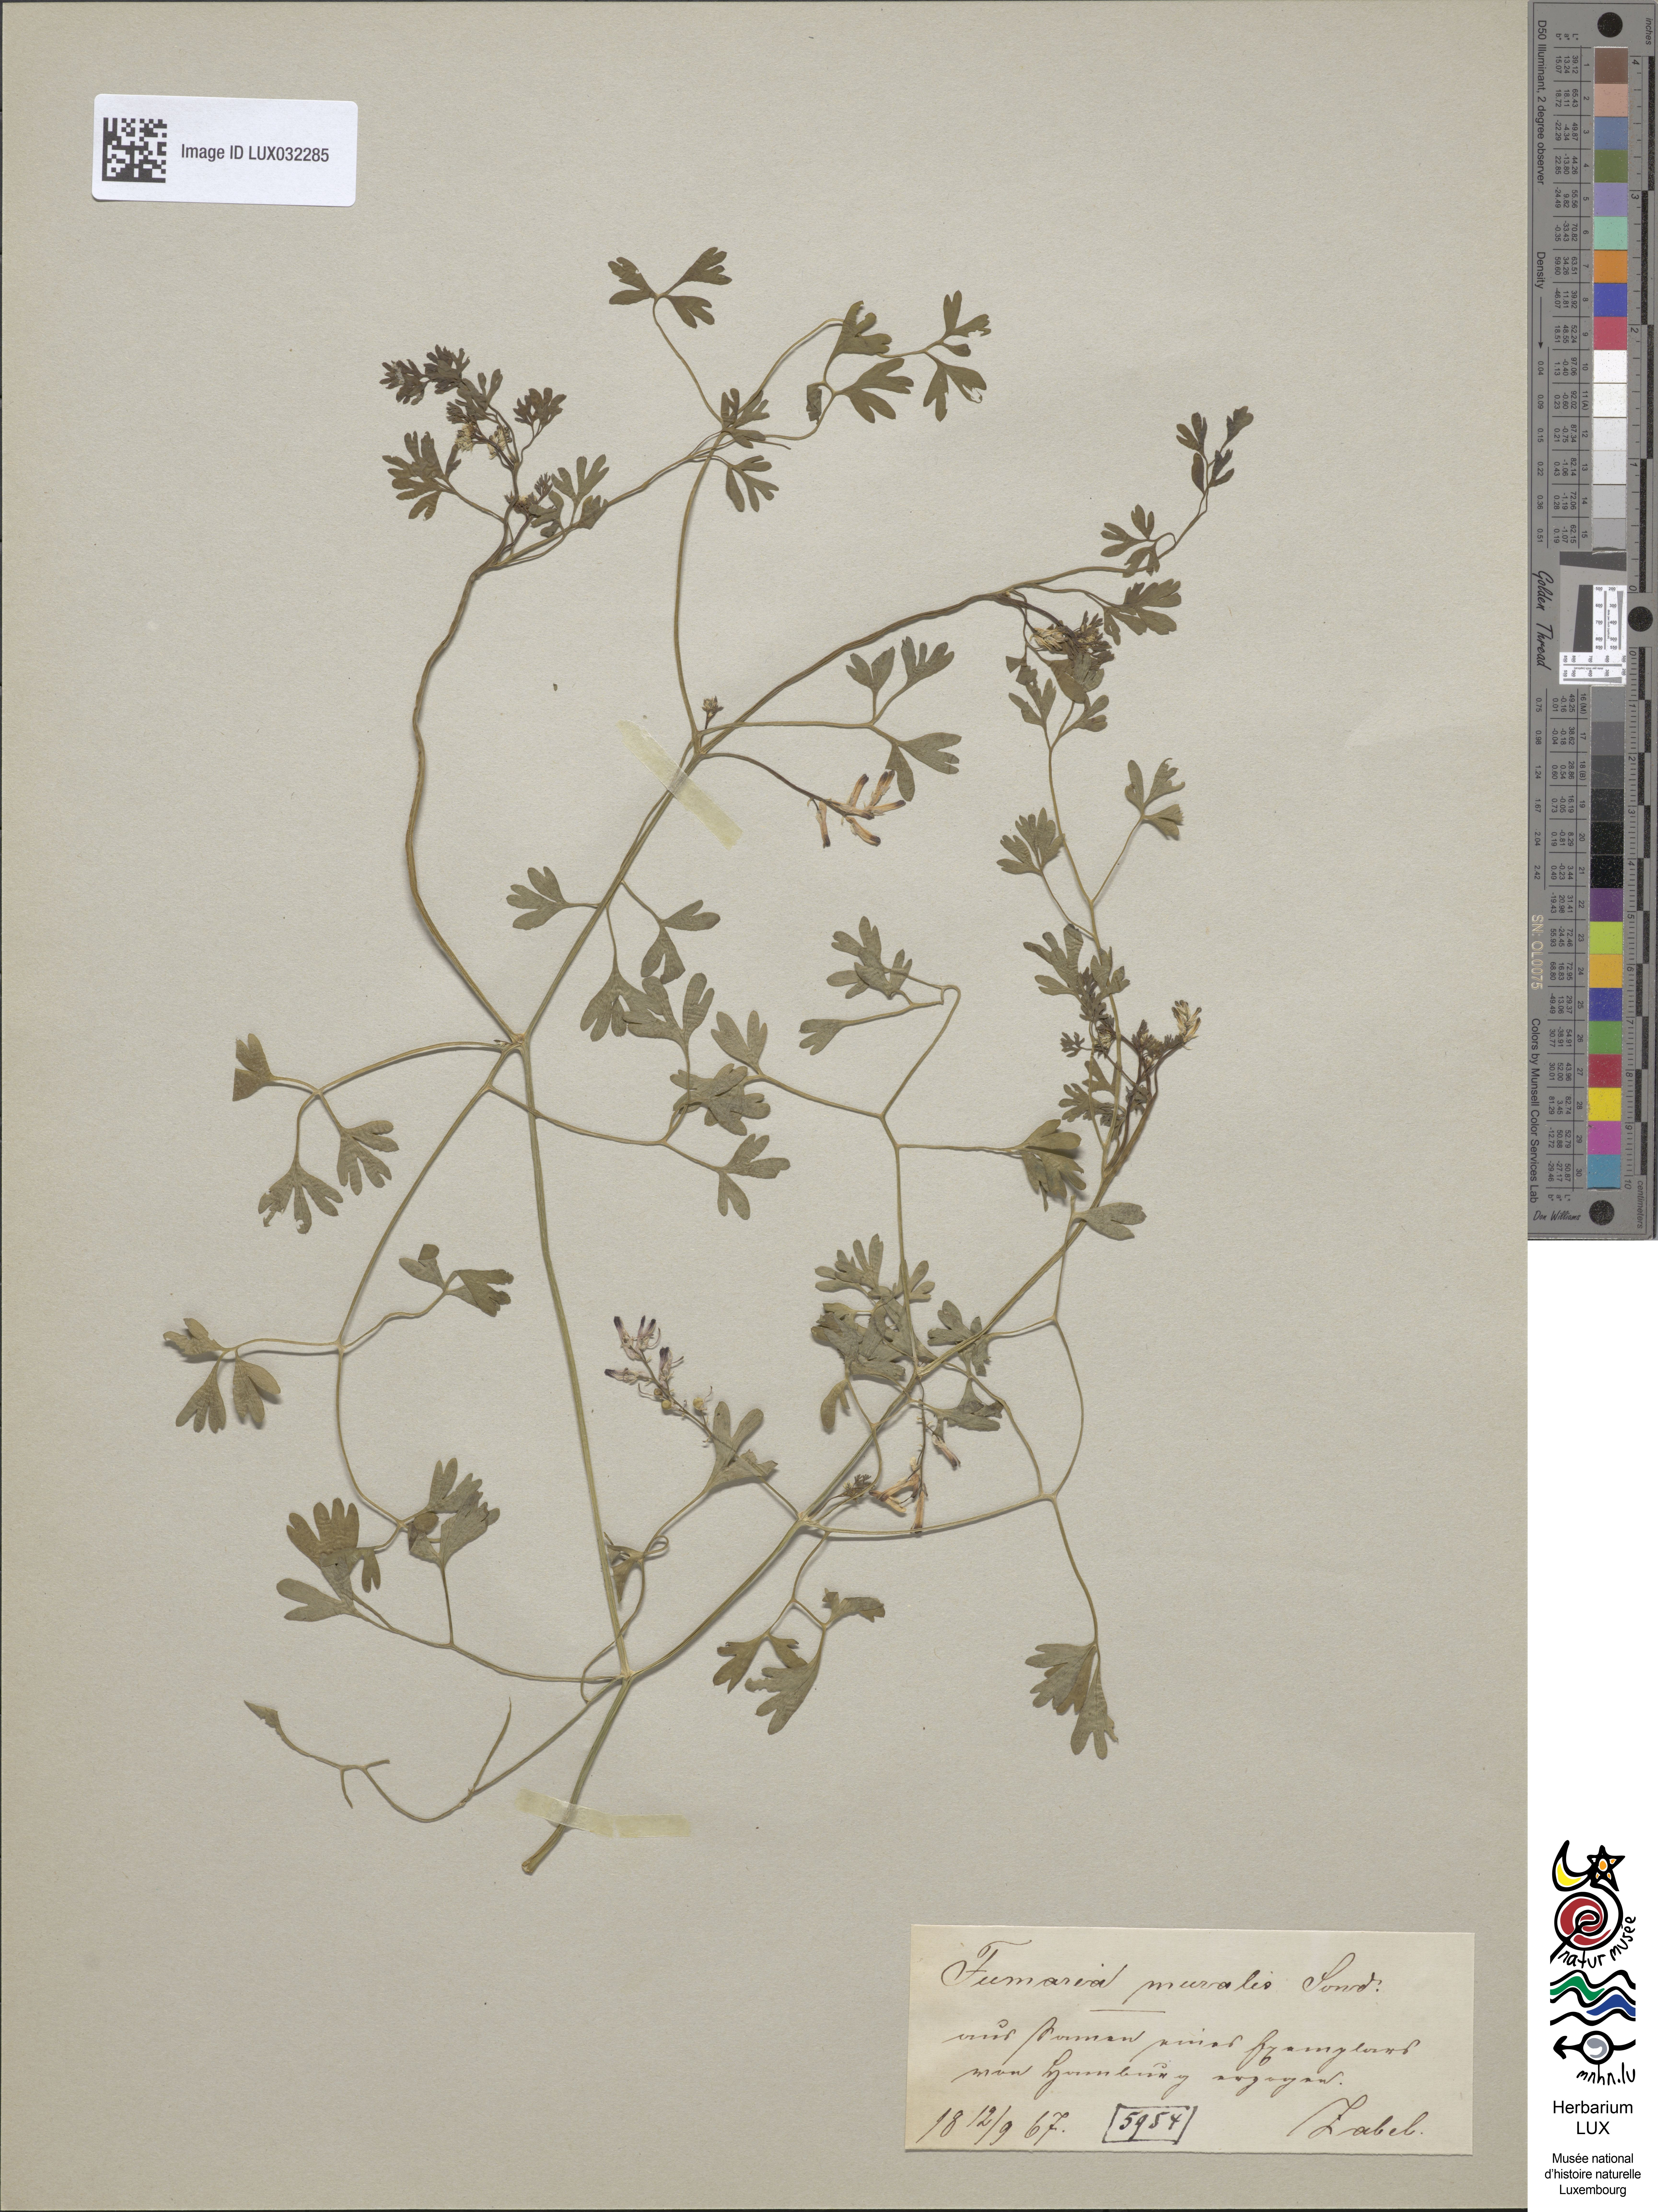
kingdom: Plantae
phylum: Tracheophyta
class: Magnoliopsida
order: Ranunculales
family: Papaveraceae
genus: Fumaria
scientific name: Fumaria muralis
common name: Common ramping-fumitory
